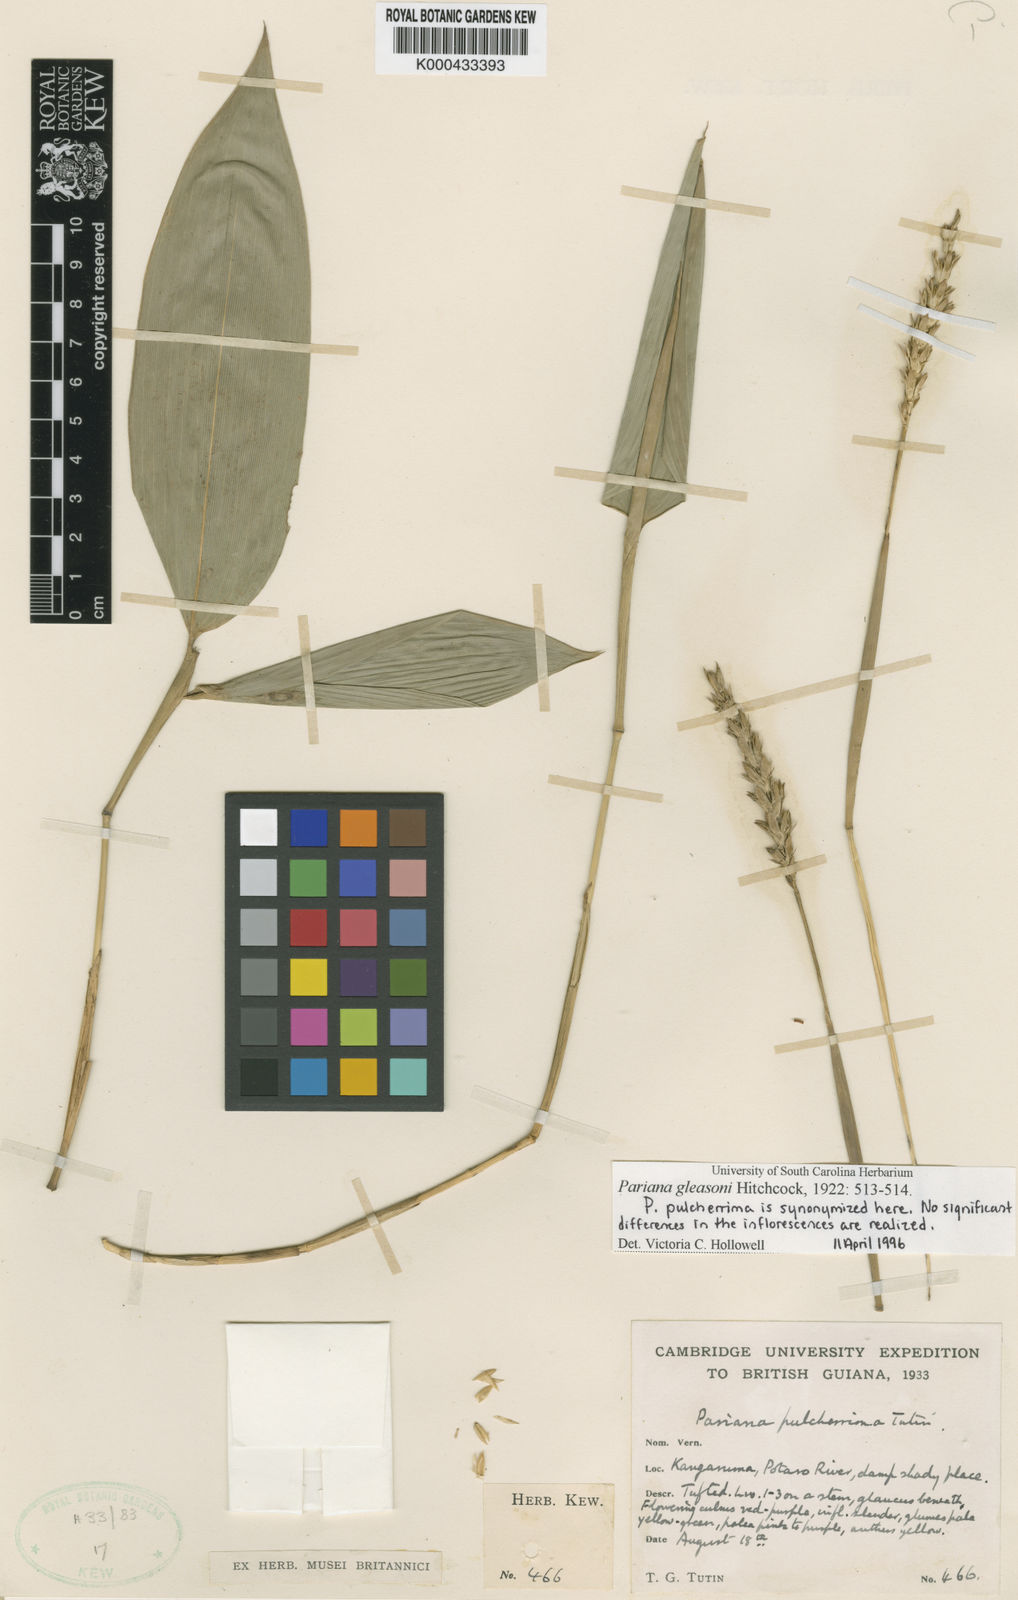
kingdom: Plantae
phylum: Tracheophyta
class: Liliopsida
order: Poales
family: Poaceae
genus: Pariana
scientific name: Pariana gleasonii
